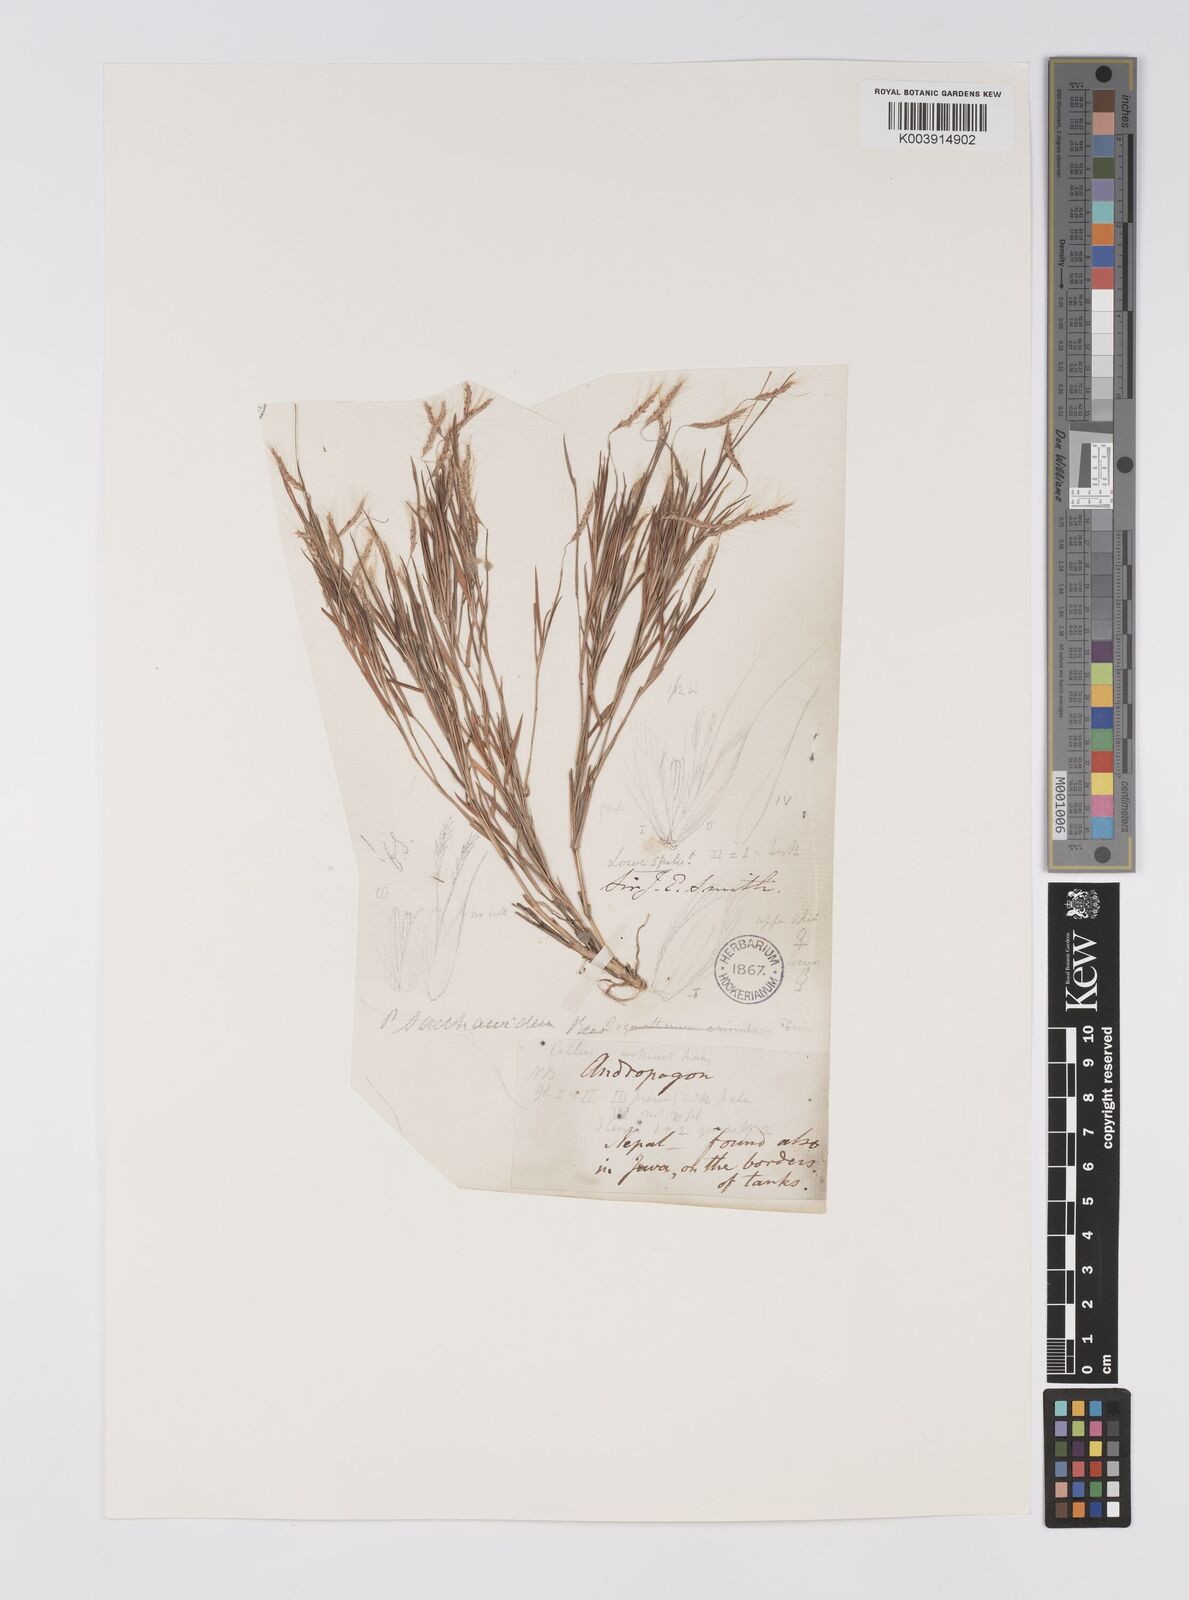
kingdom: Plantae
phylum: Tracheophyta
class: Liliopsida
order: Poales
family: Poaceae
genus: Pogonatherum
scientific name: Pogonatherum paniceum
